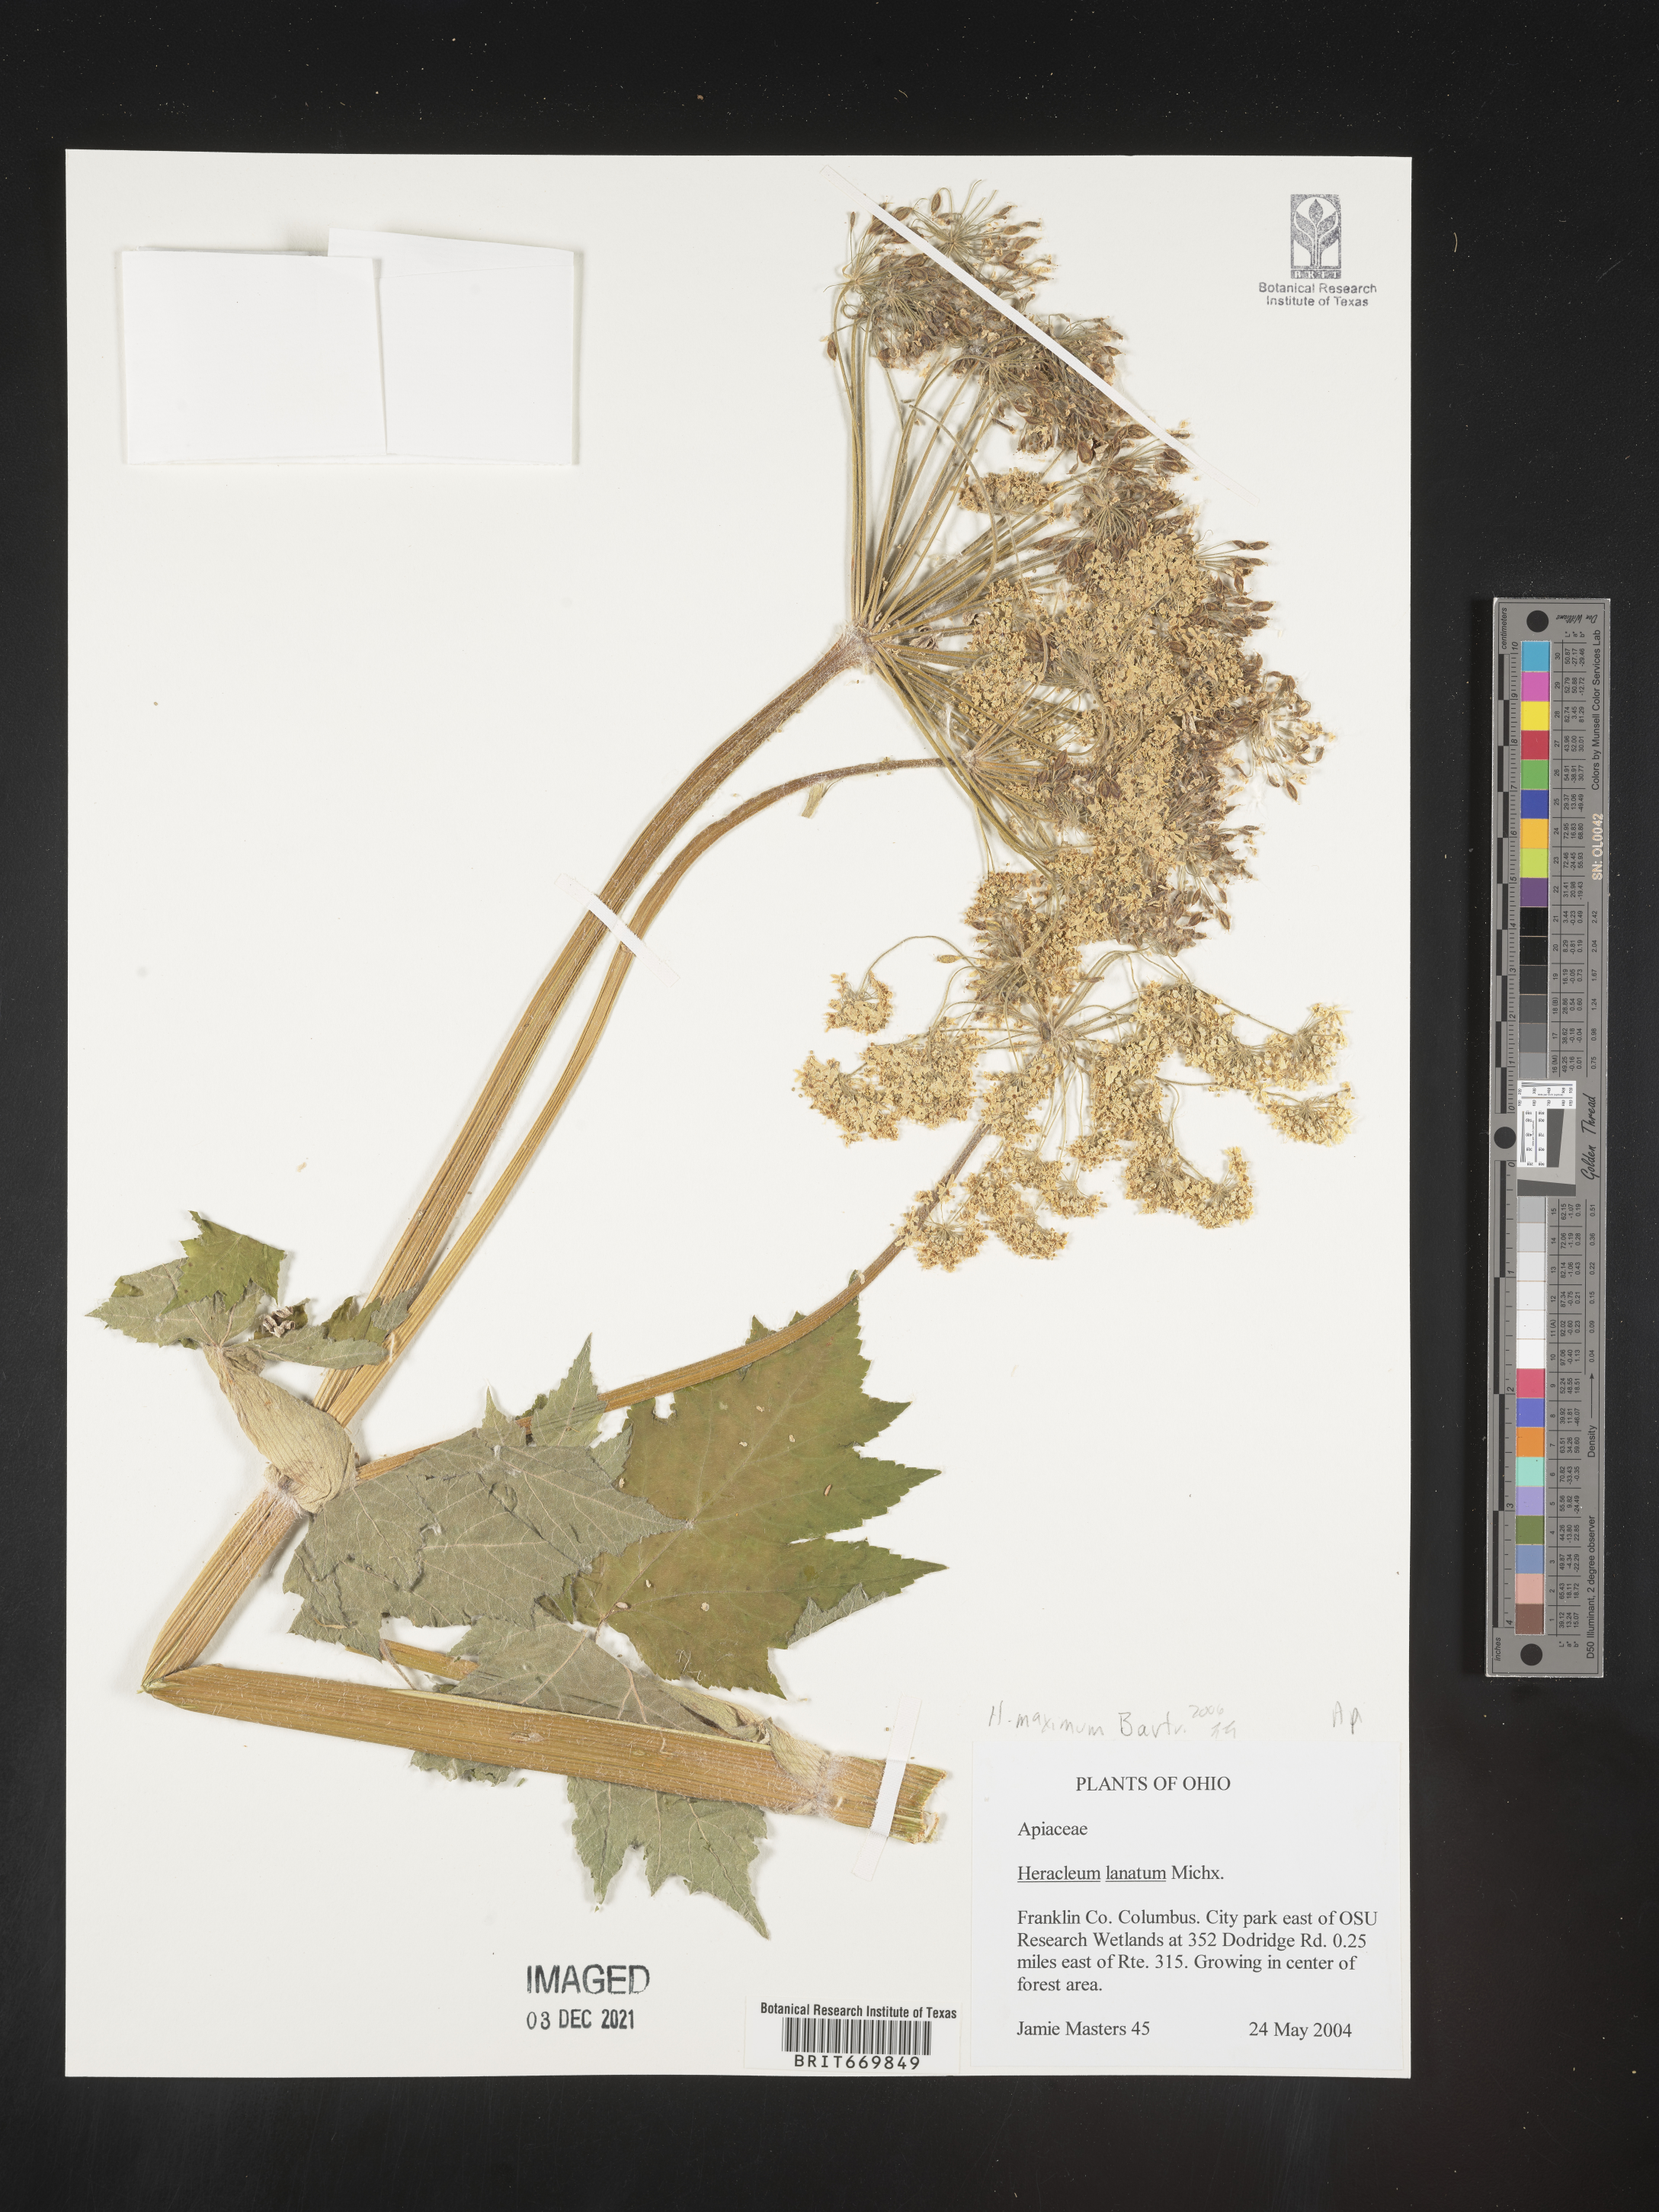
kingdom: Plantae
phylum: Tracheophyta
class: Magnoliopsida
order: Apiales
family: Apiaceae
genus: Heracleum
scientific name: Heracleum
